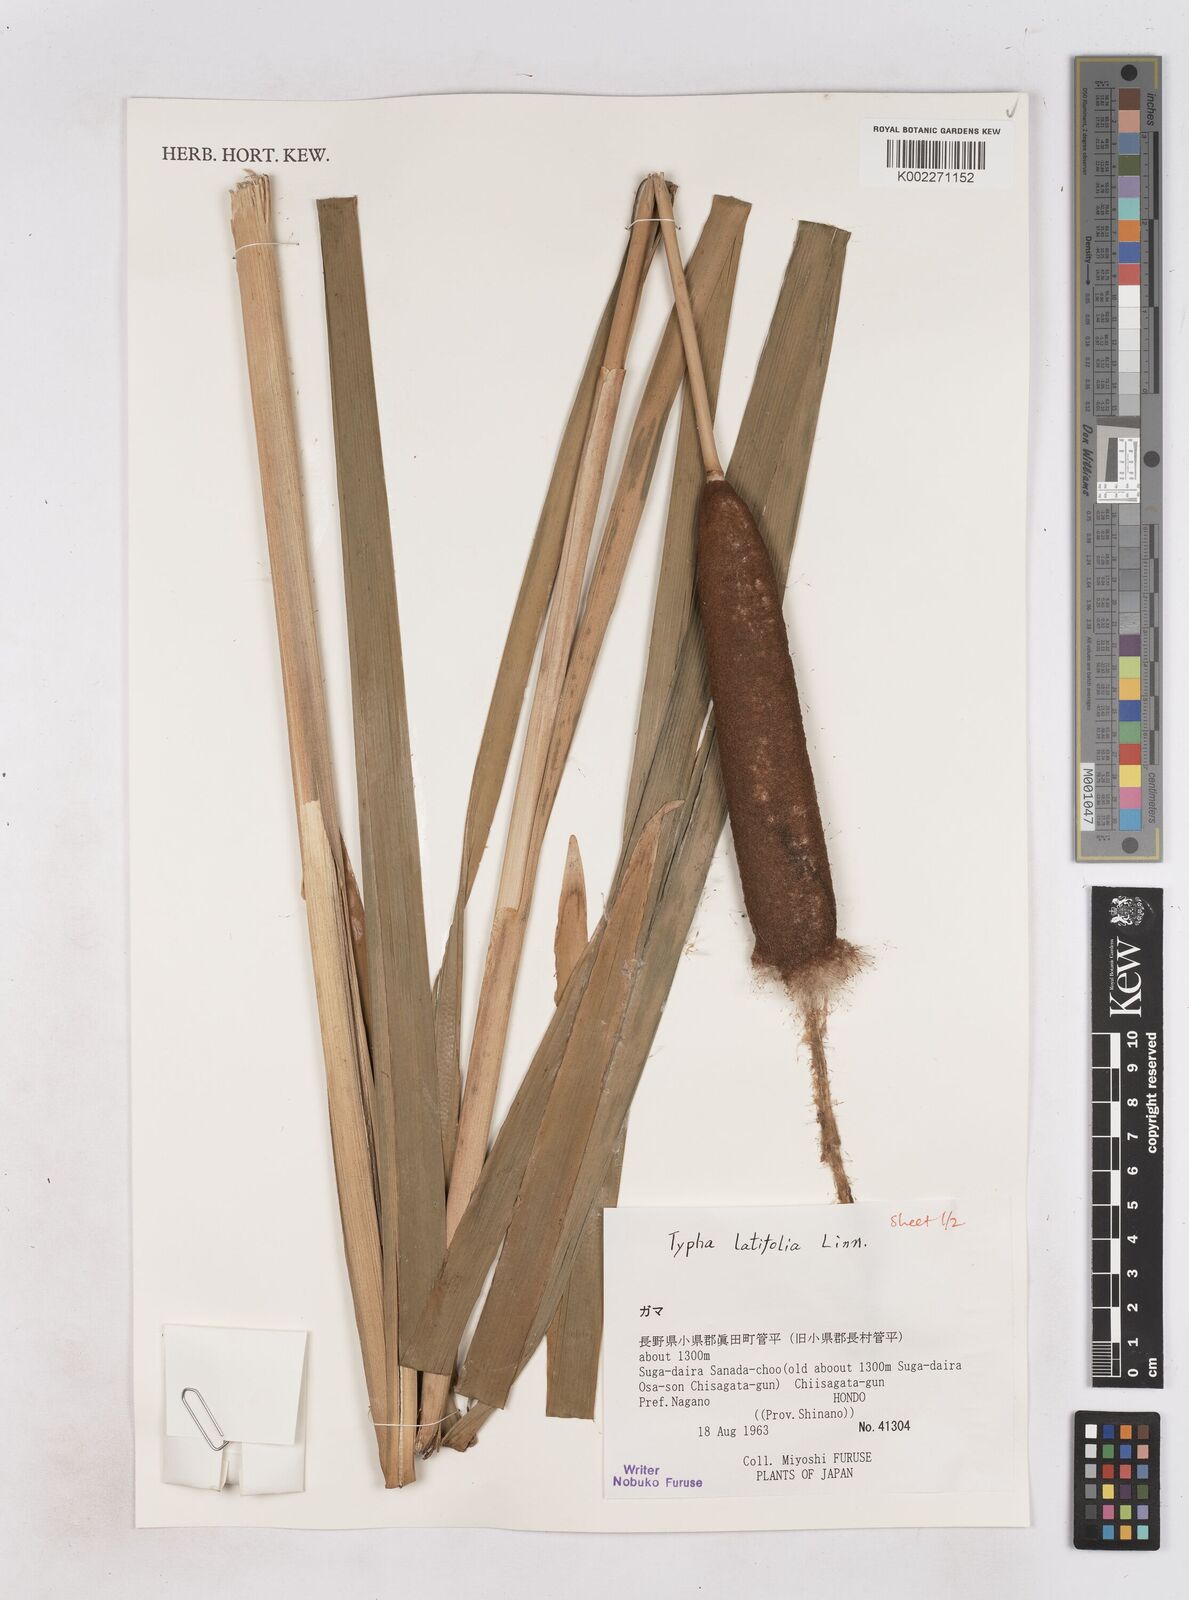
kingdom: Plantae
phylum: Tracheophyta
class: Liliopsida
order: Poales
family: Typhaceae
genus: Typha
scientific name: Typha latifolia
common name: Broadleaf cattail
